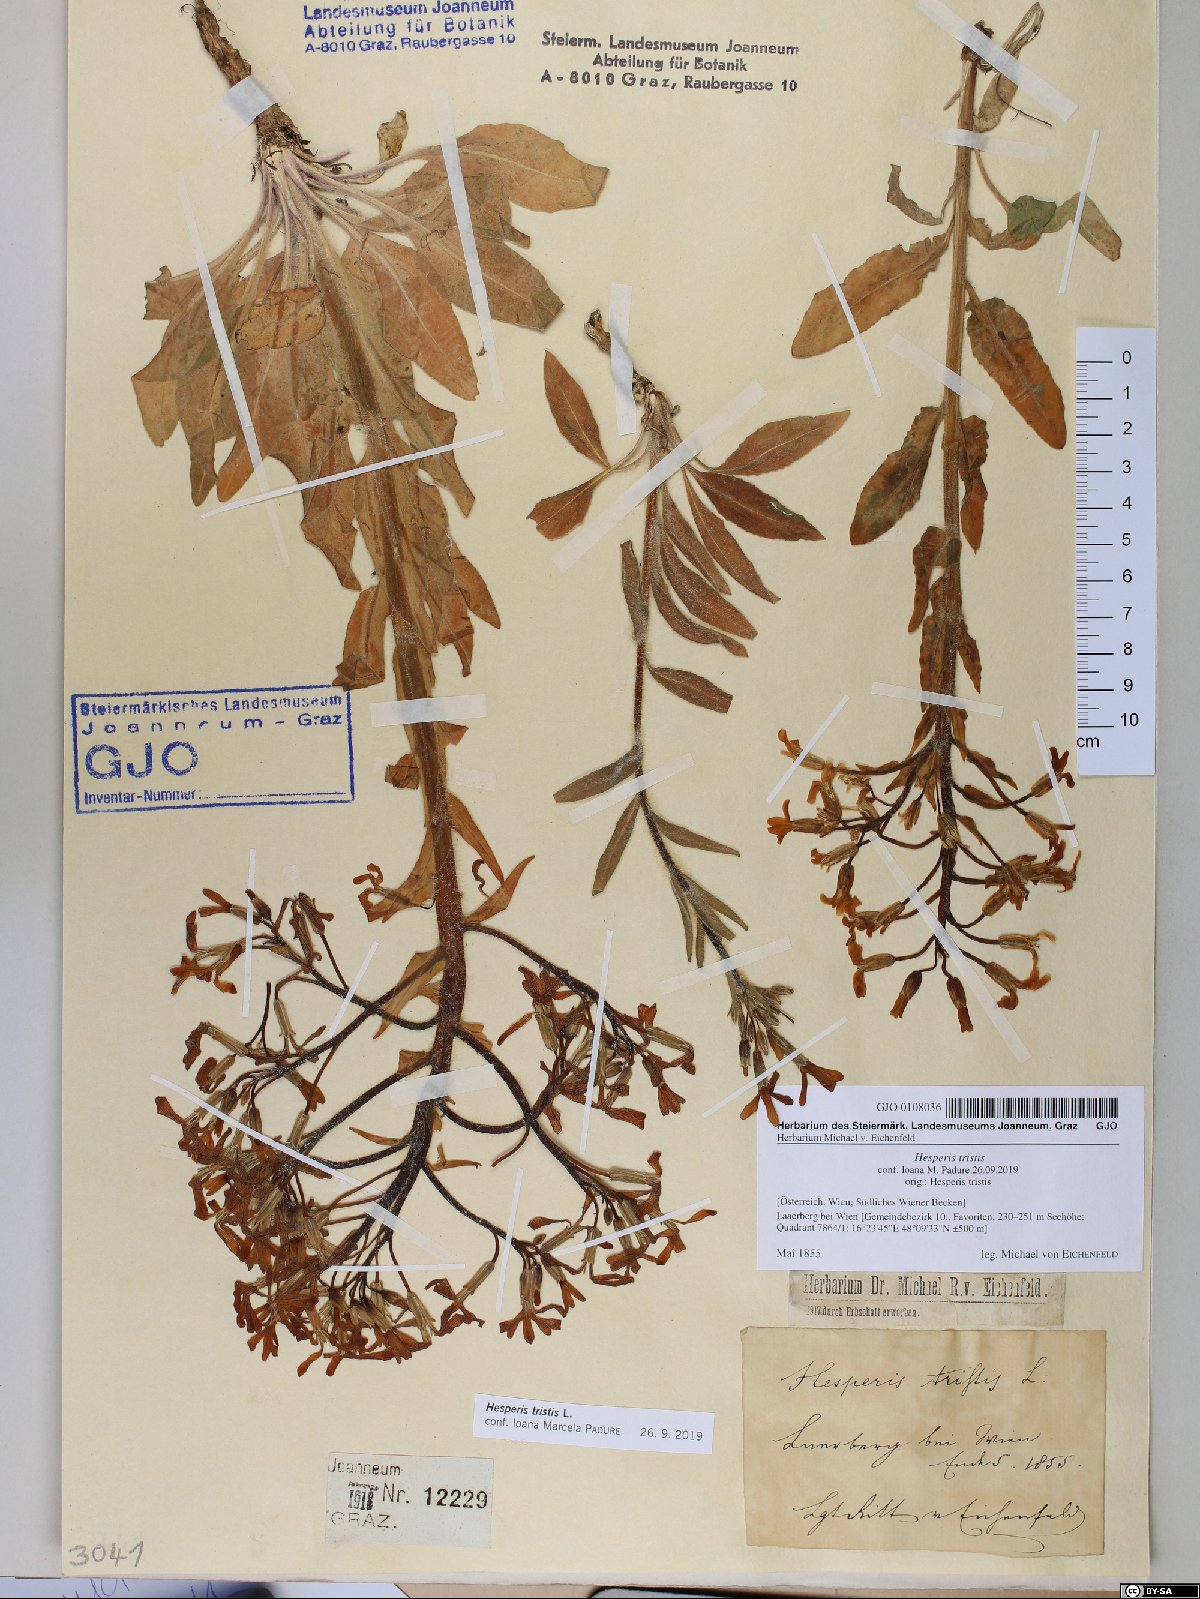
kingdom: Plantae
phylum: Tracheophyta
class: Magnoliopsida
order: Brassicales
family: Brassicaceae
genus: Hesperis
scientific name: Hesperis tristis
